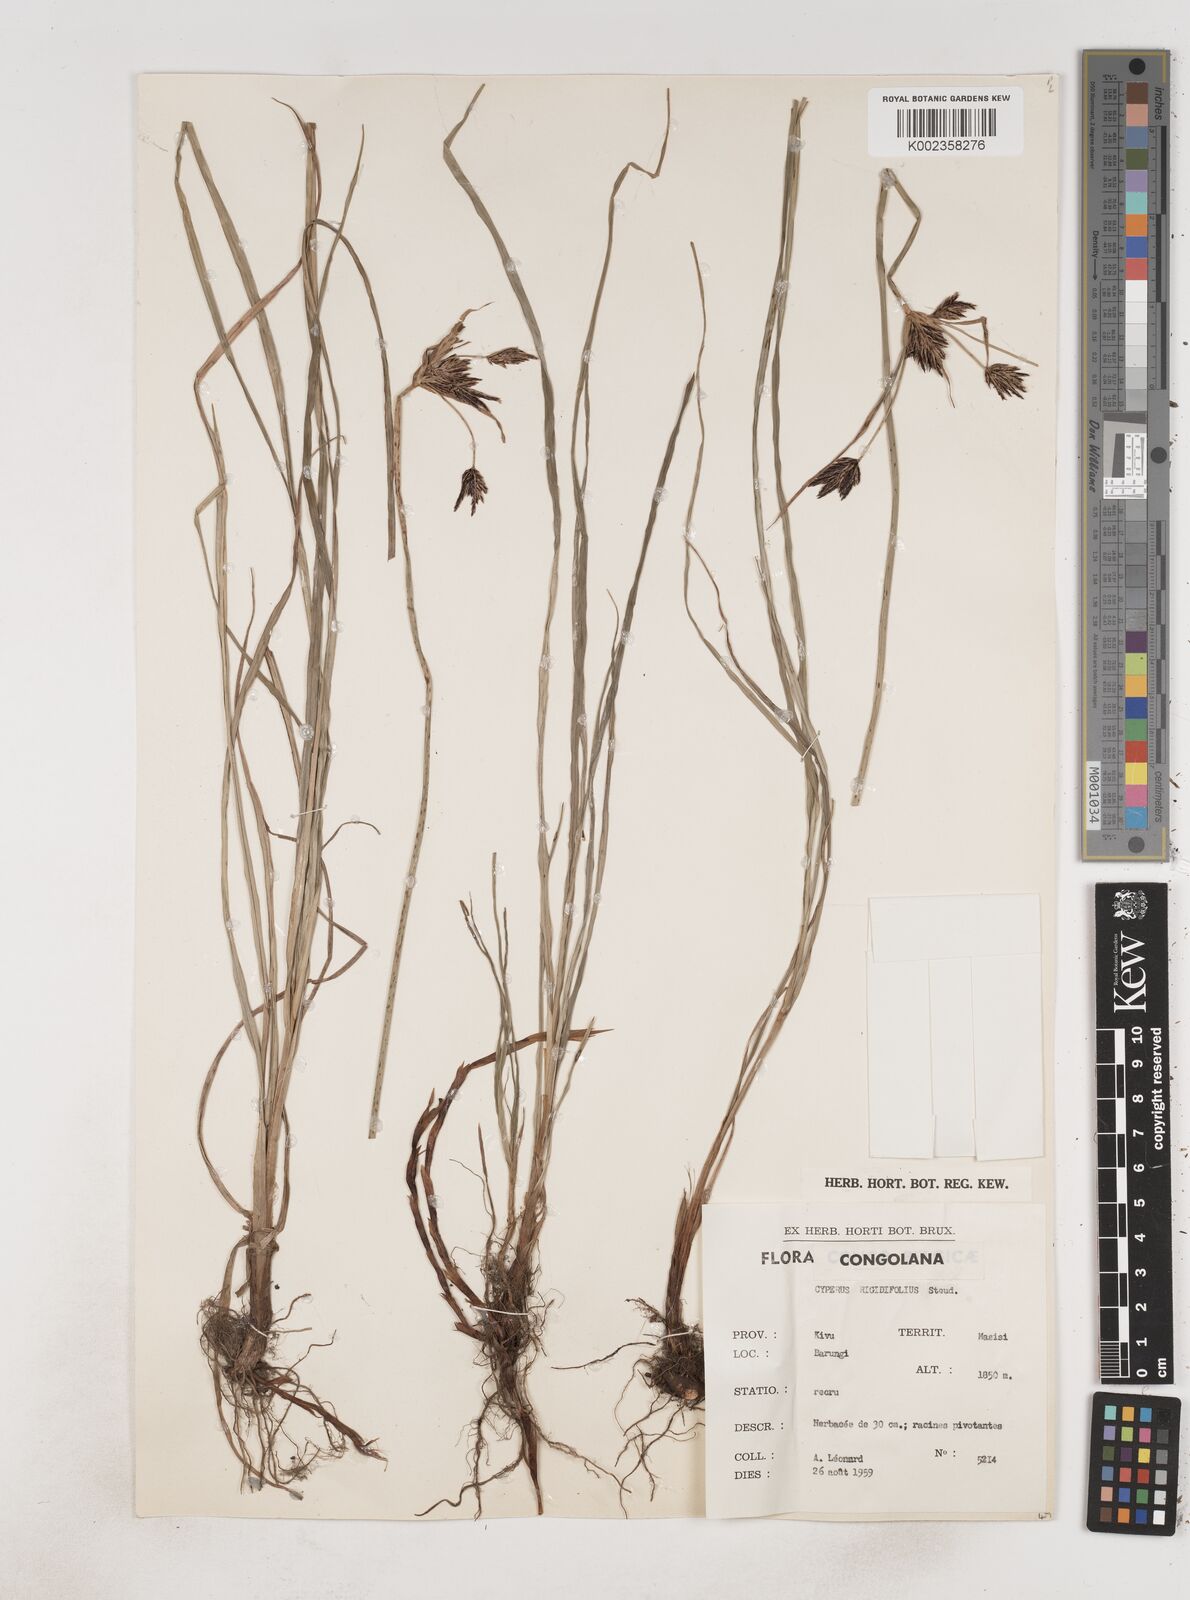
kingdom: Plantae
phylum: Tracheophyta
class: Liliopsida
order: Poales
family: Cyperaceae
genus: Cyperus
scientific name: Cyperus rigidifolius
